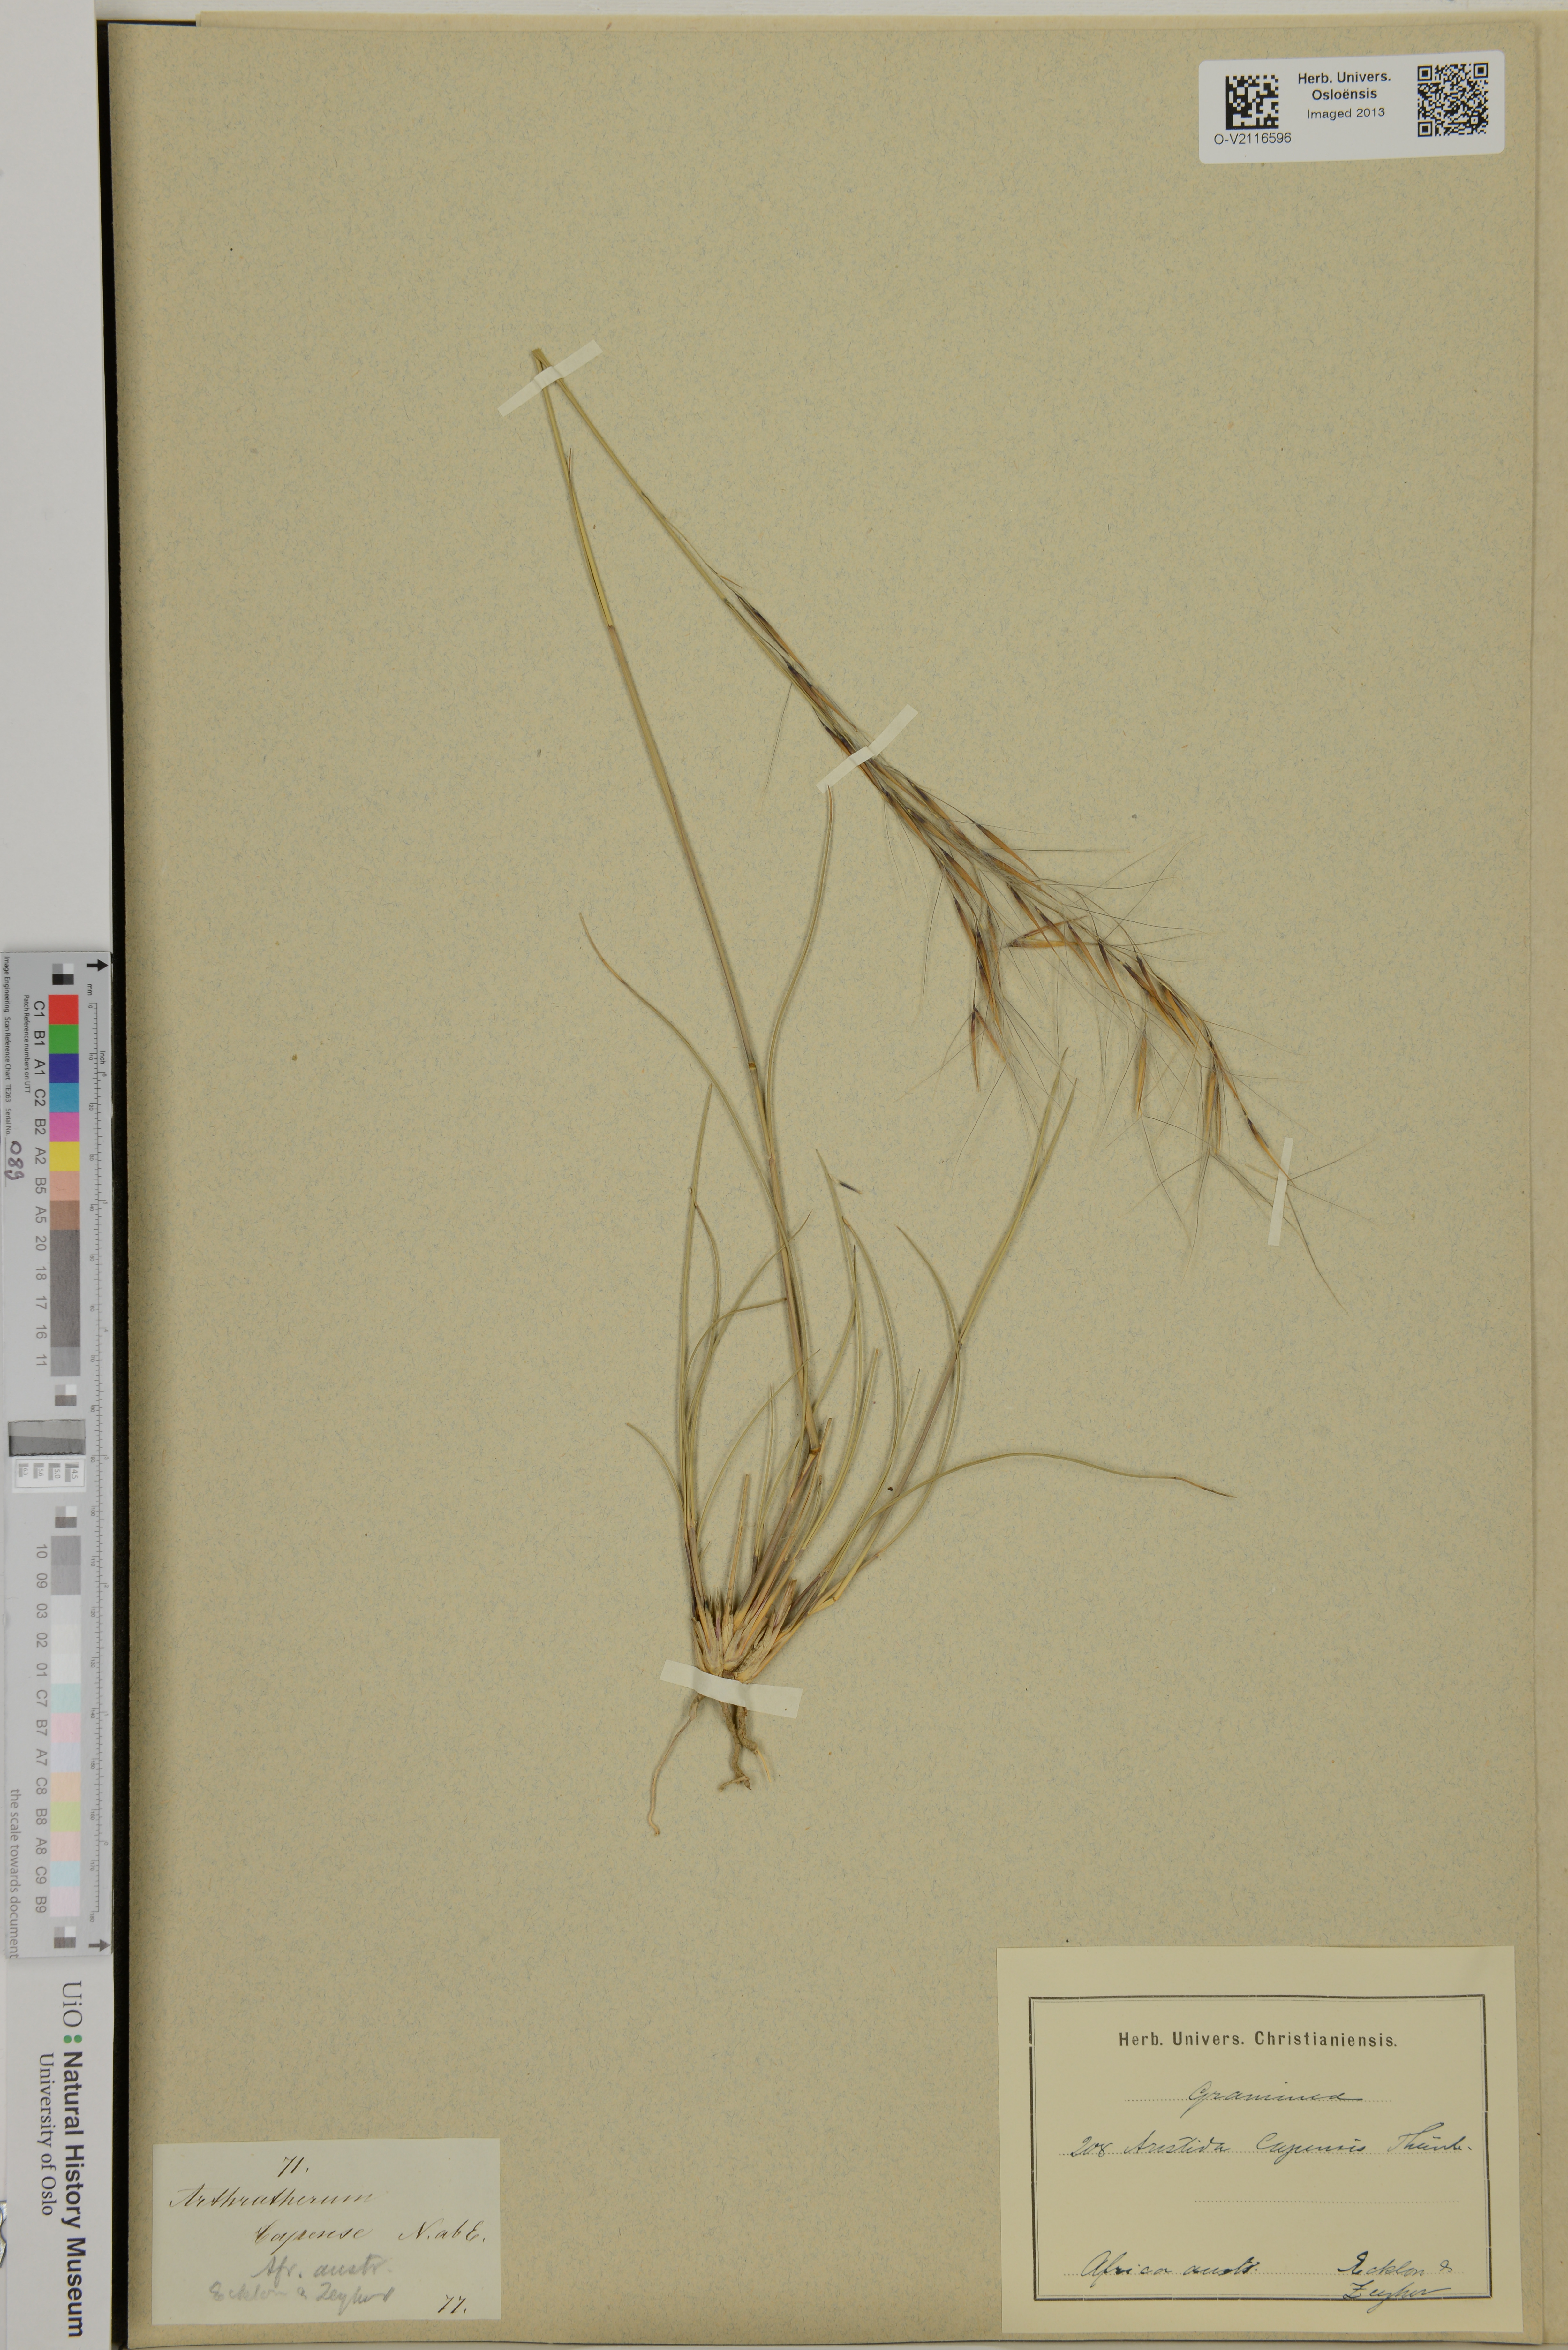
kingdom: Plantae
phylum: Tracheophyta
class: Liliopsida
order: Poales
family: Poaceae
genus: Aristida
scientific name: Aristida capensis
